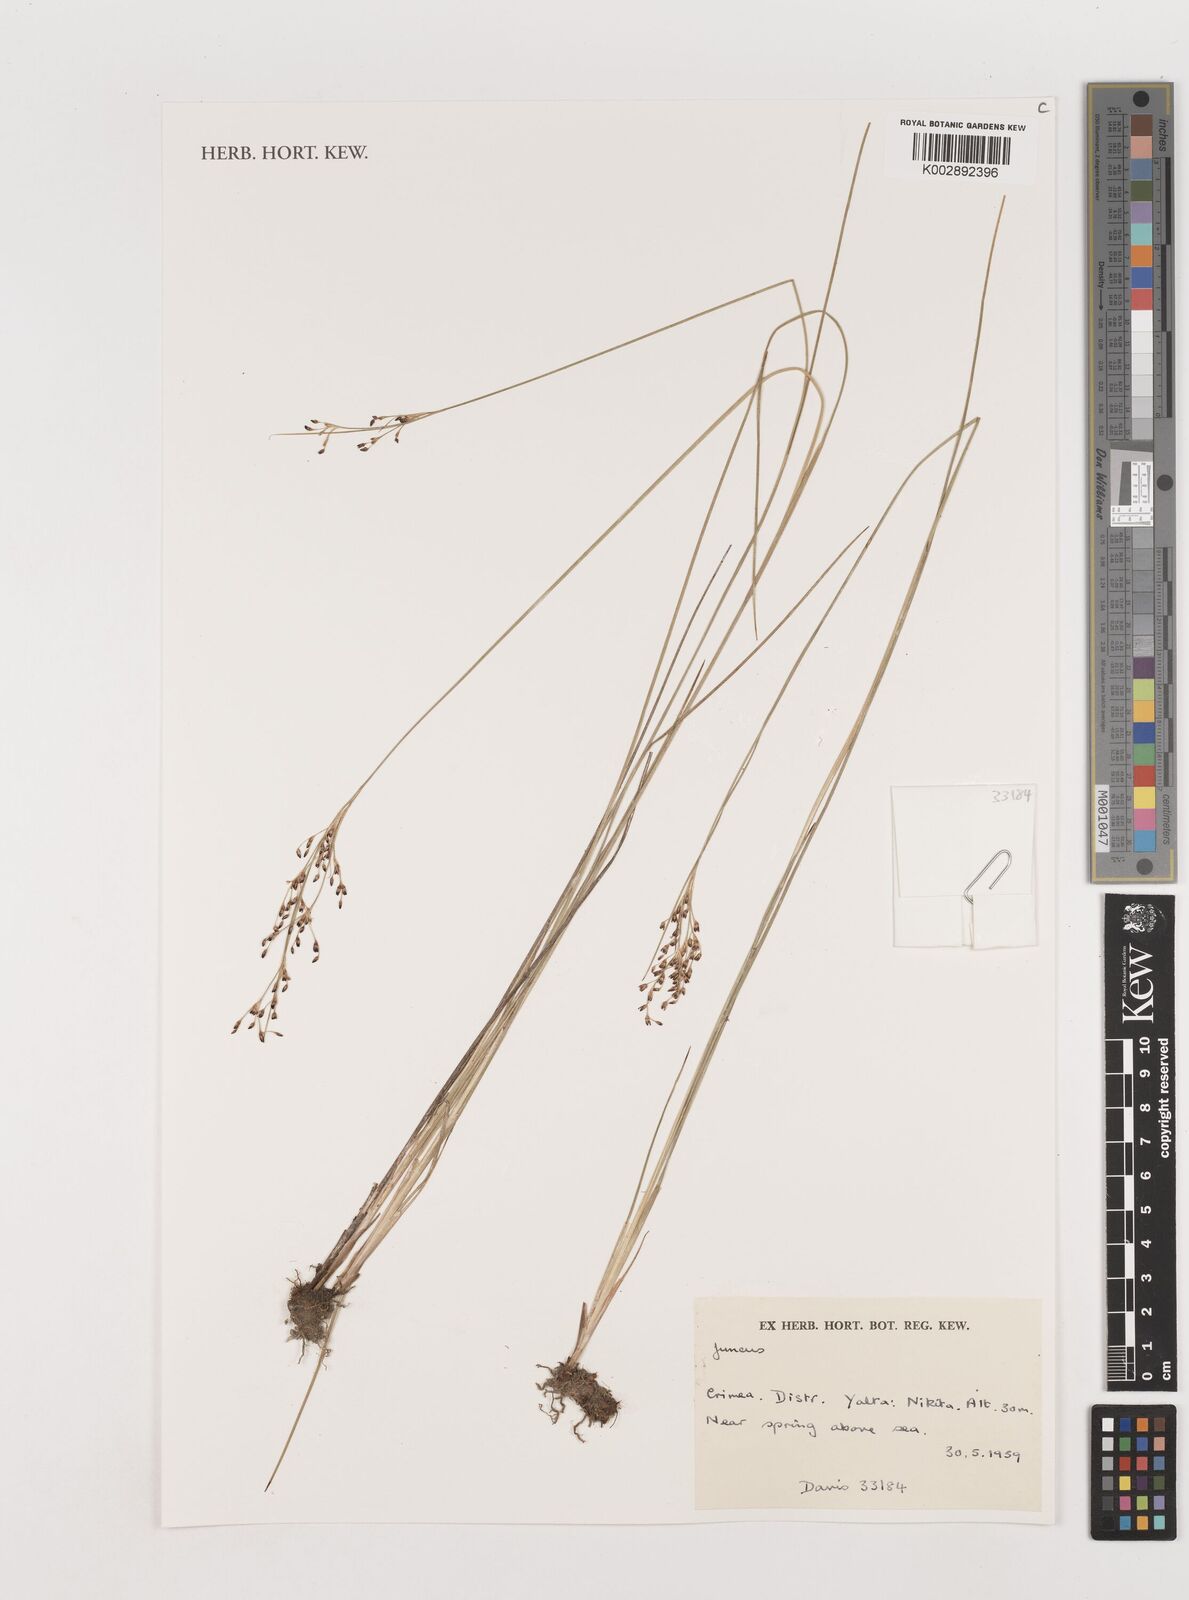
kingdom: Plantae
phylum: Tracheophyta
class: Liliopsida
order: Poales
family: Juncaceae
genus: Juncus
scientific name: Juncus
